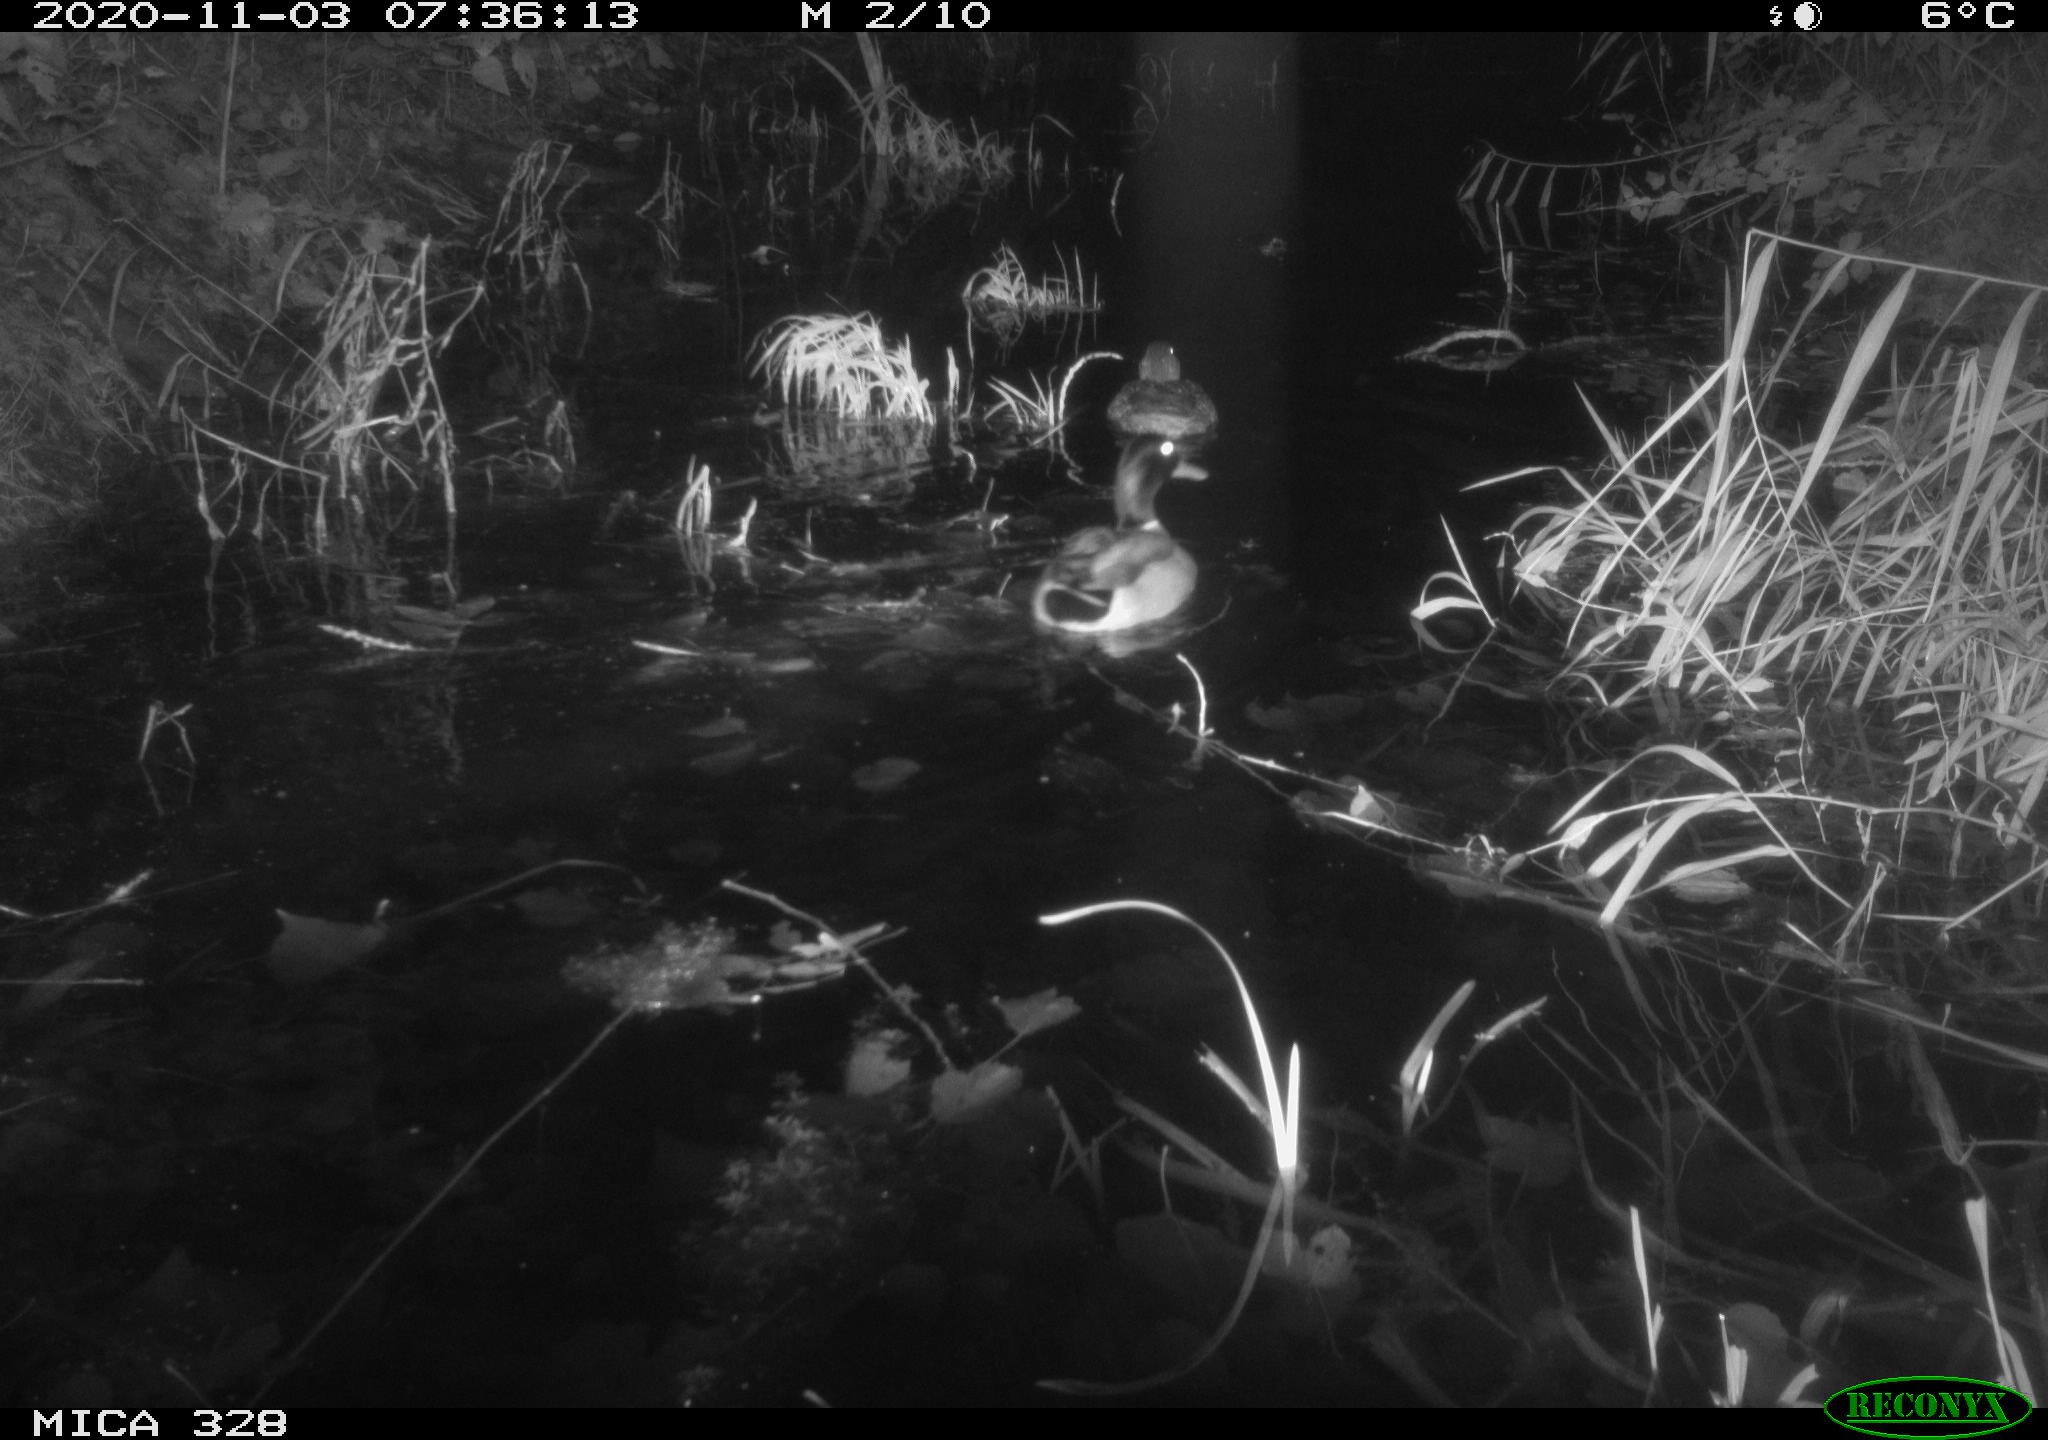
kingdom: Animalia
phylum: Chordata
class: Aves
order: Anseriformes
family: Anatidae
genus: Anas
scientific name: Anas platyrhynchos
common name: Mallard
